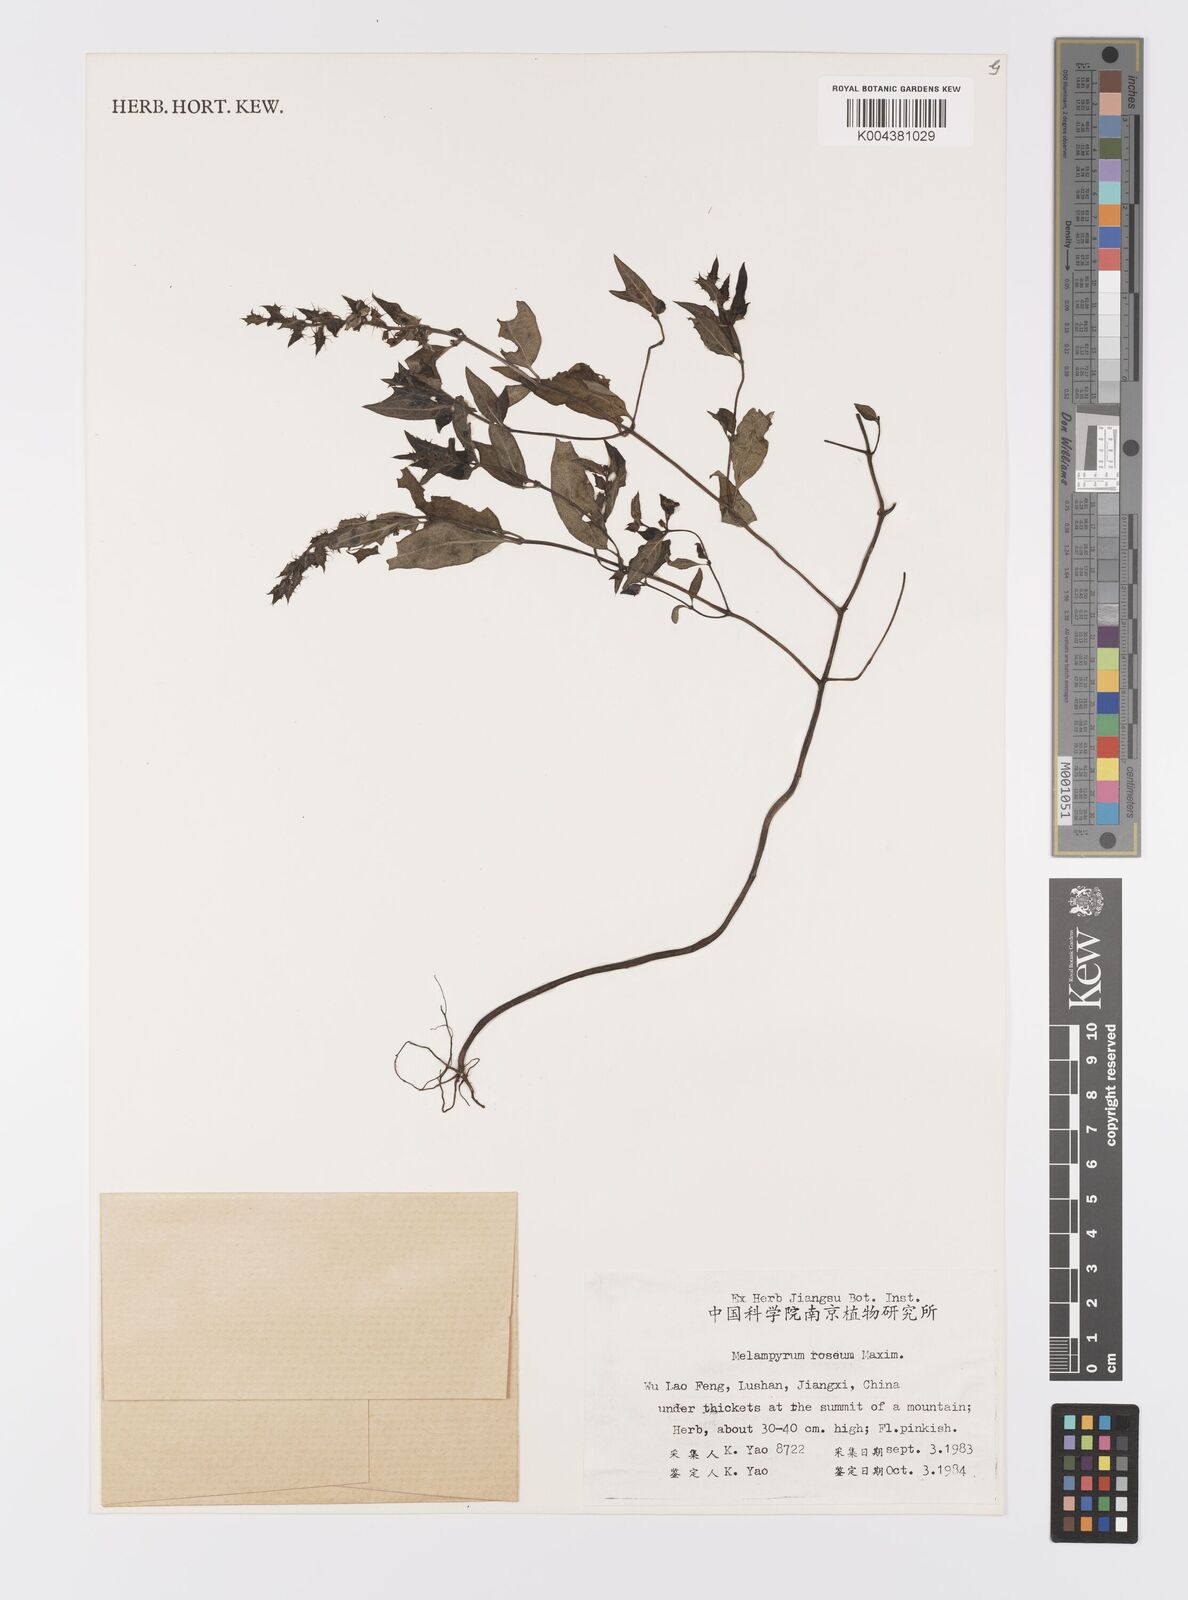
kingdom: Plantae
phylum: Tracheophyta
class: Magnoliopsida
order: Lamiales
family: Orobanchaceae
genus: Melampyrum
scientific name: Melampyrum roseum
